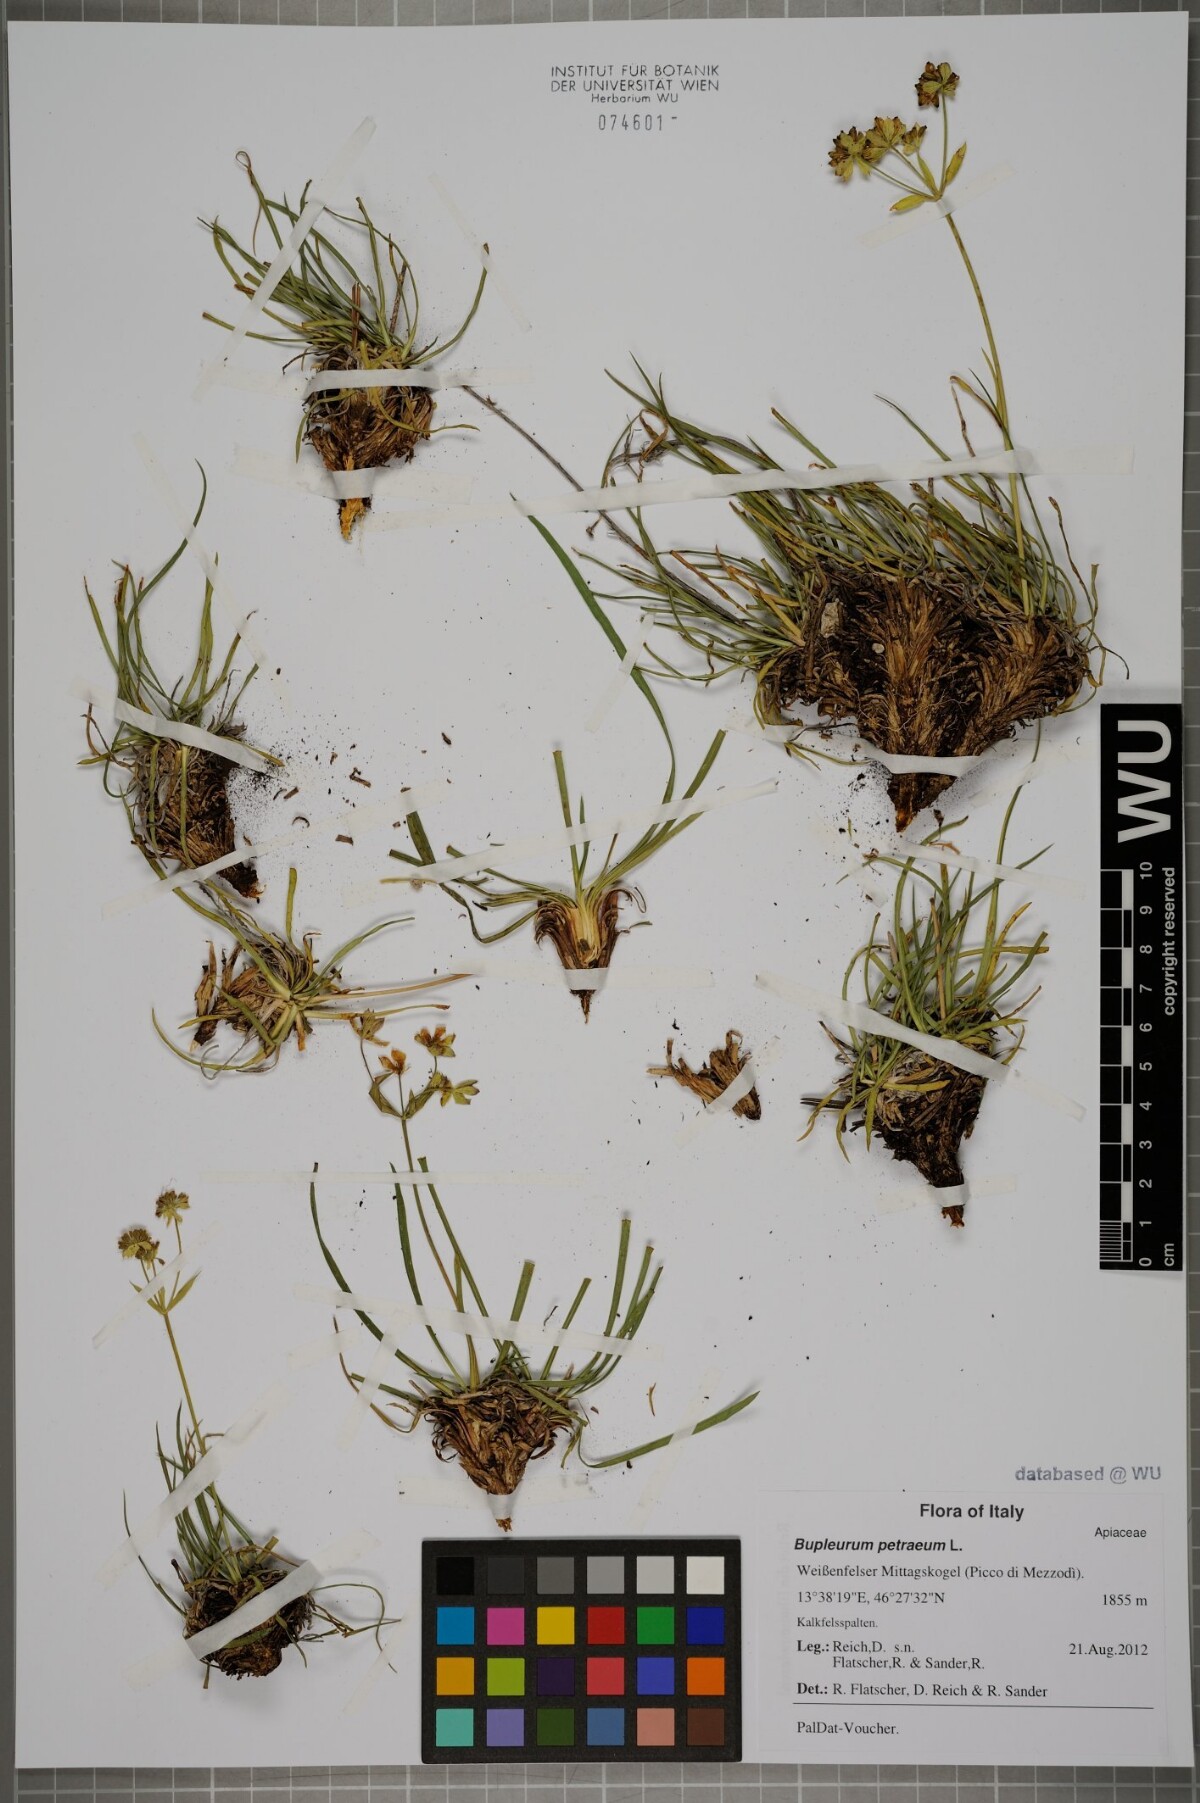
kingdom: Plantae
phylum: Tracheophyta
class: Magnoliopsida
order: Apiales
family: Apiaceae
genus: Bupleurum
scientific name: Bupleurum petraeum
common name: Rock hare's-ear
